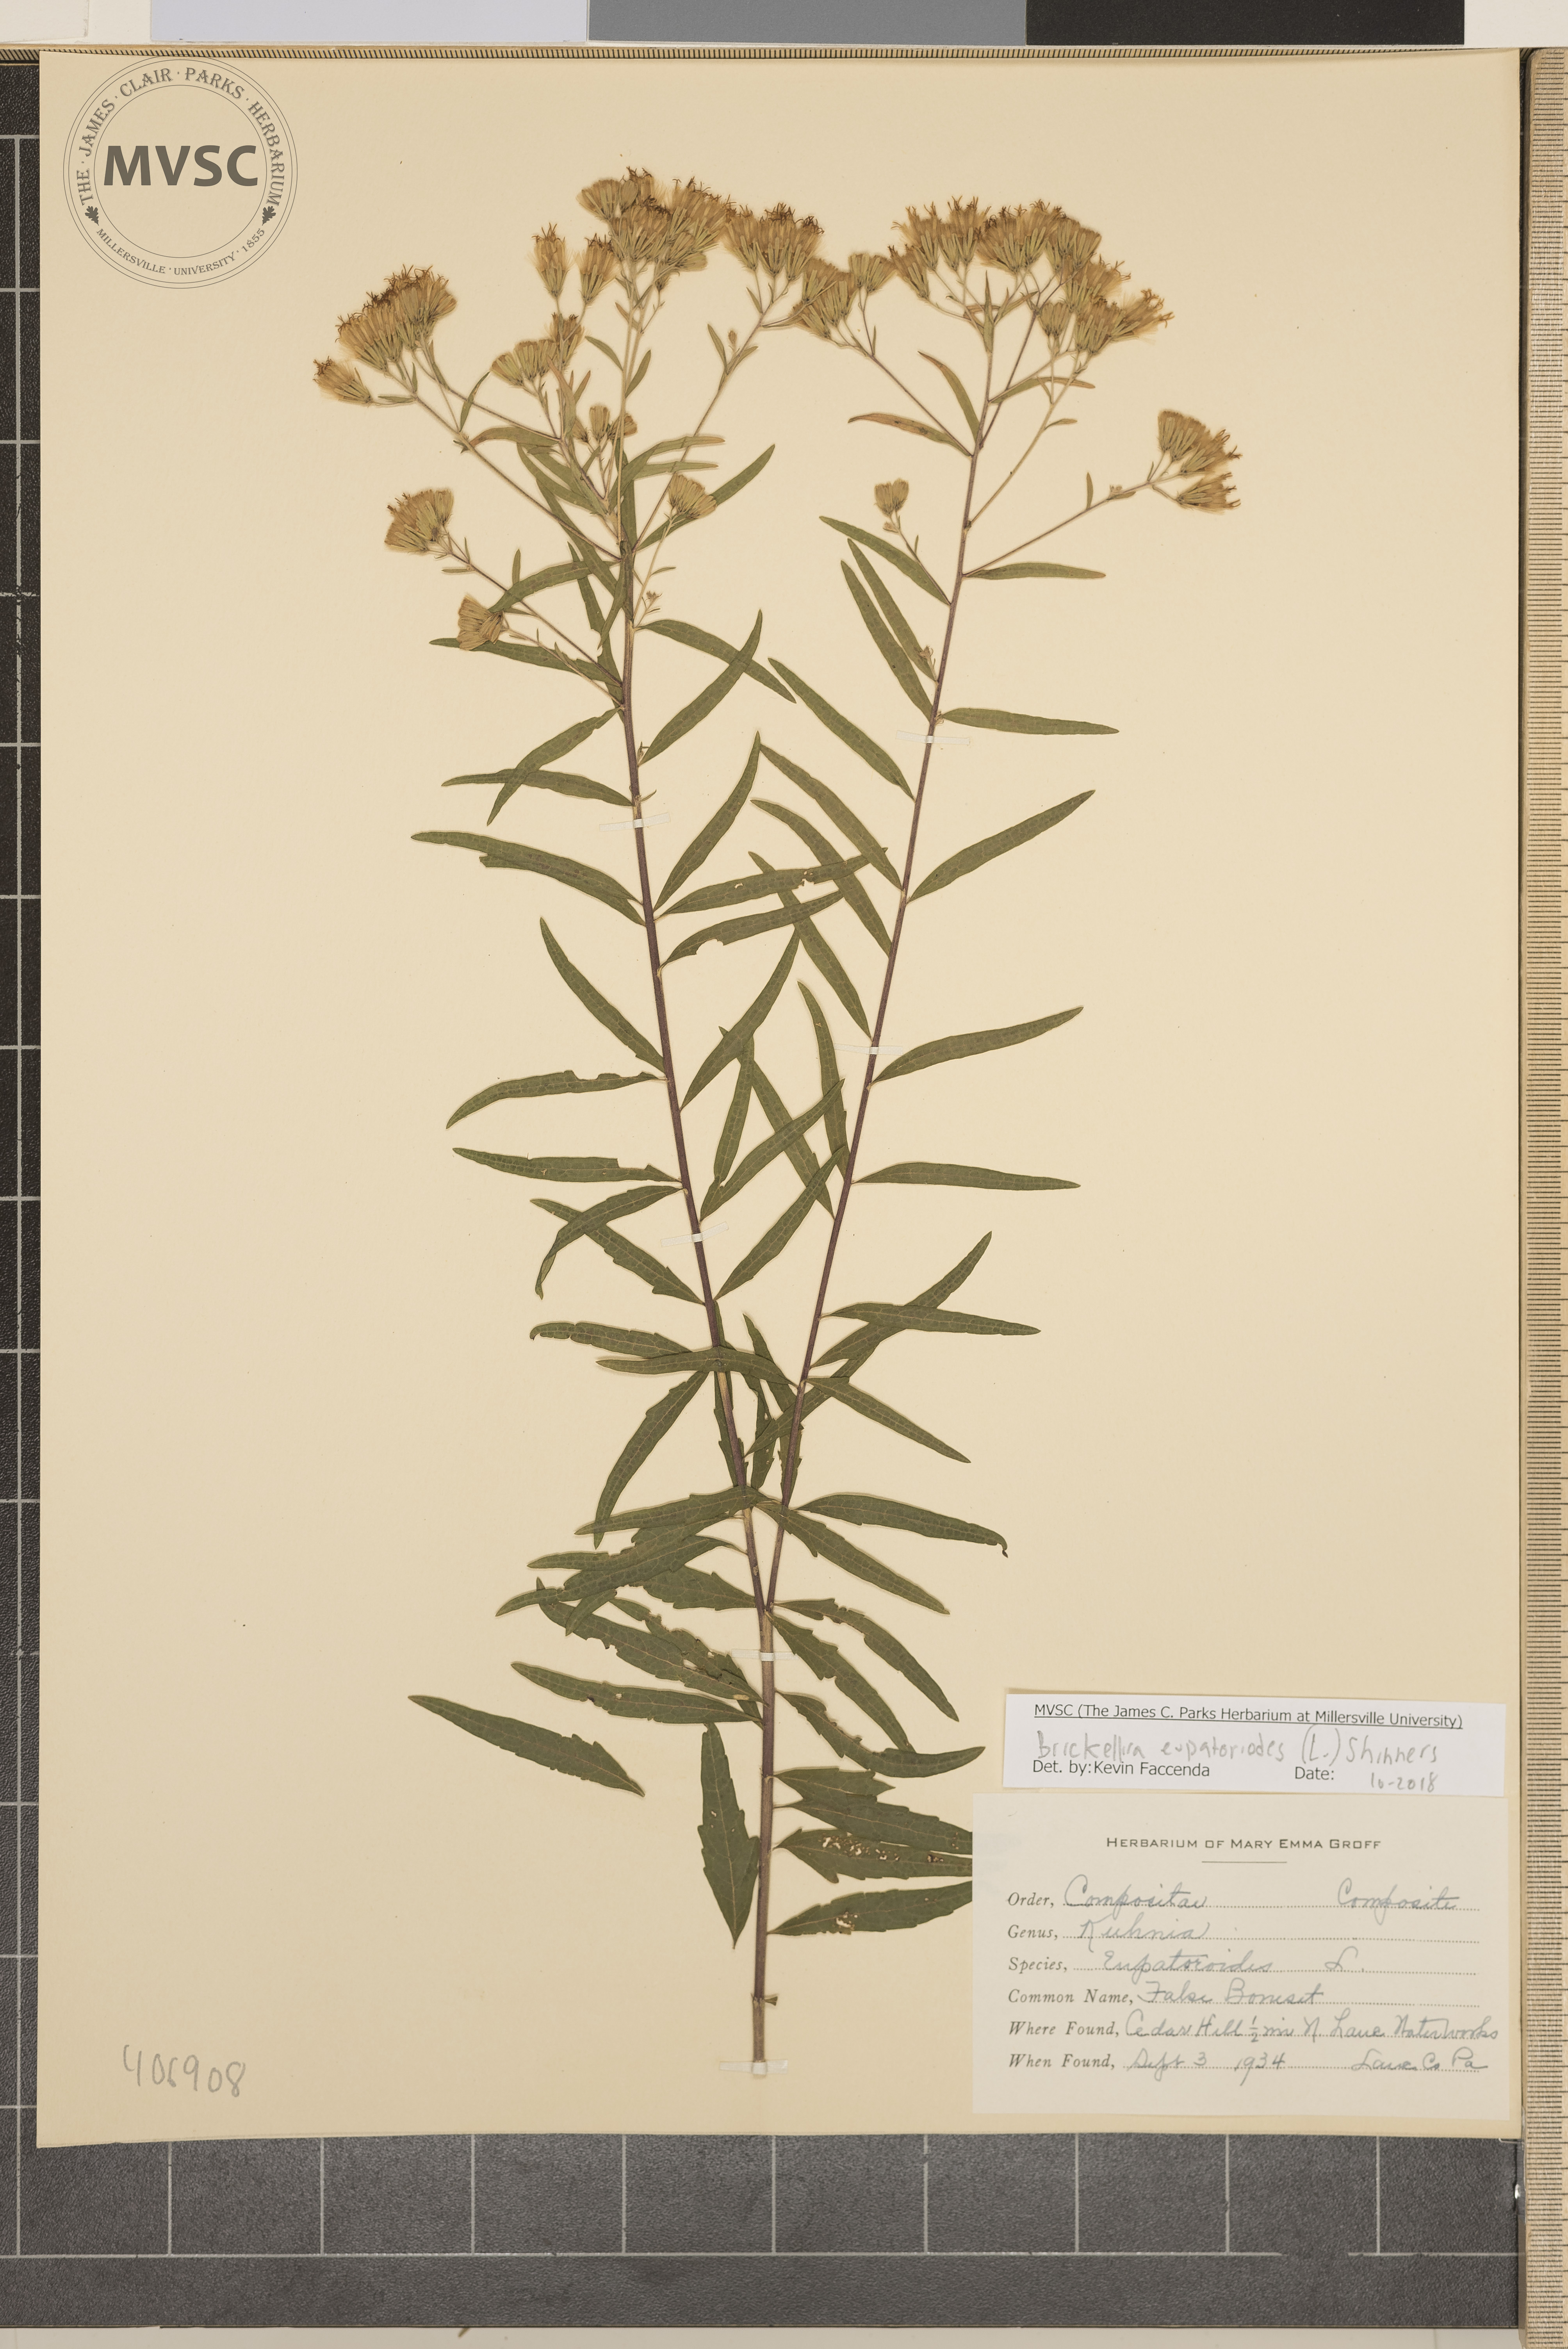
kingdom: Plantae
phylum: Tracheophyta
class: Magnoliopsida
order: Asterales
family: Asteraceae
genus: Brickellia
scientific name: Brickellia eupatorioides
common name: False Boneset
